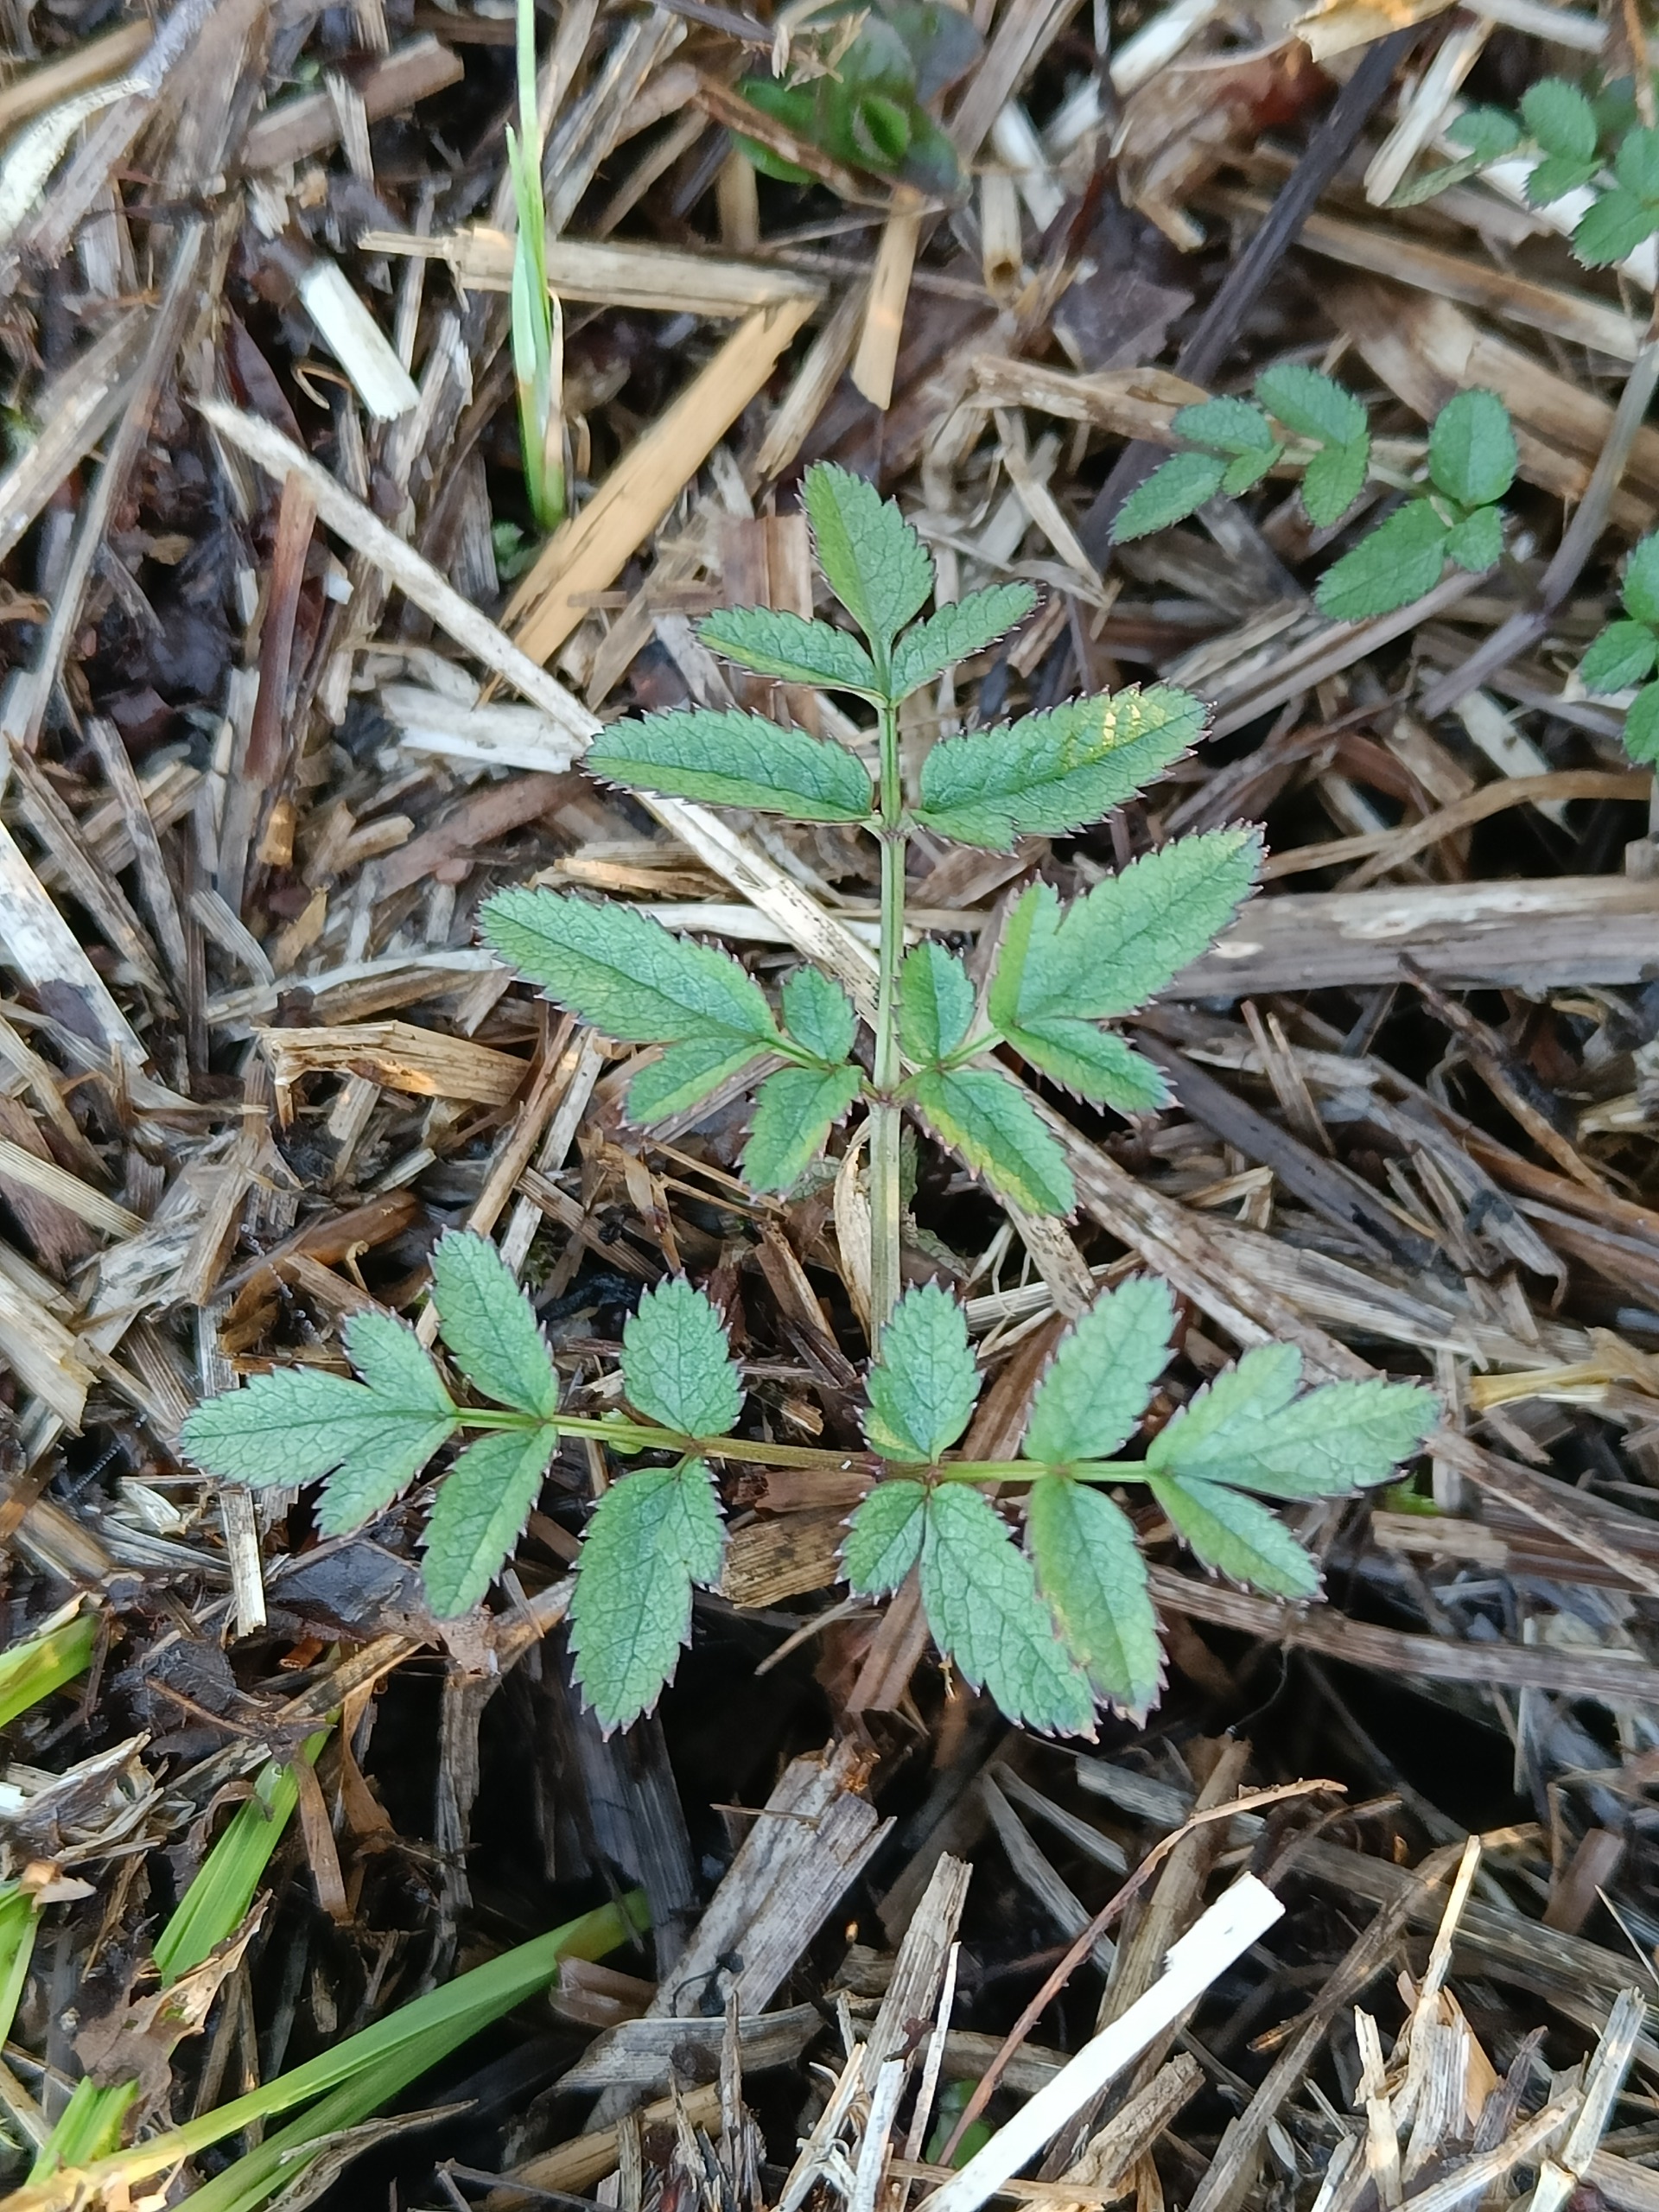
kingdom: Plantae
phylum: Tracheophyta
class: Magnoliopsida
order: Apiales
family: Apiaceae
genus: Angelica
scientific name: Angelica sylvestris
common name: Angelik
